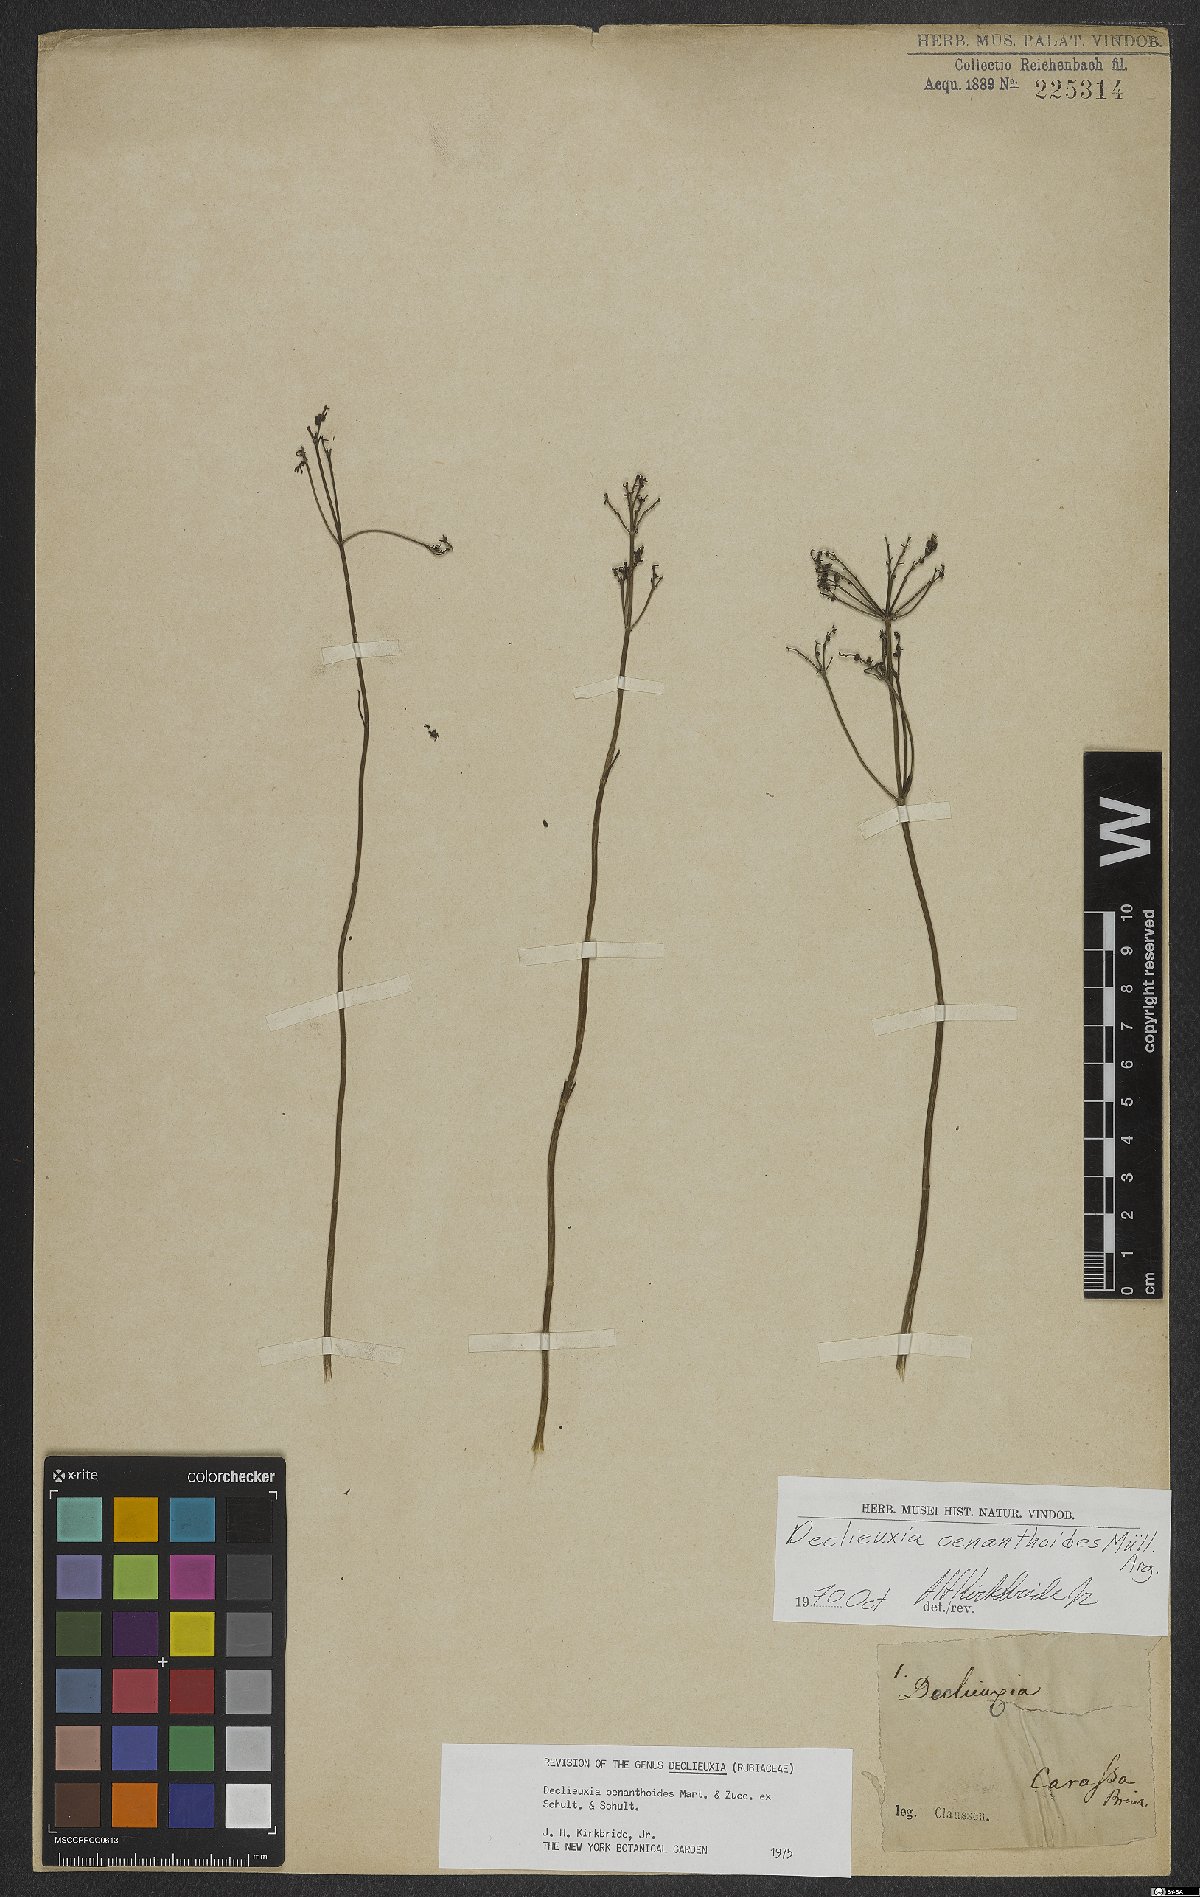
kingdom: Plantae
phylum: Tracheophyta
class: Magnoliopsida
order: Gentianales
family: Rubiaceae
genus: Declieuxia
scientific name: Declieuxia oenanthoides
